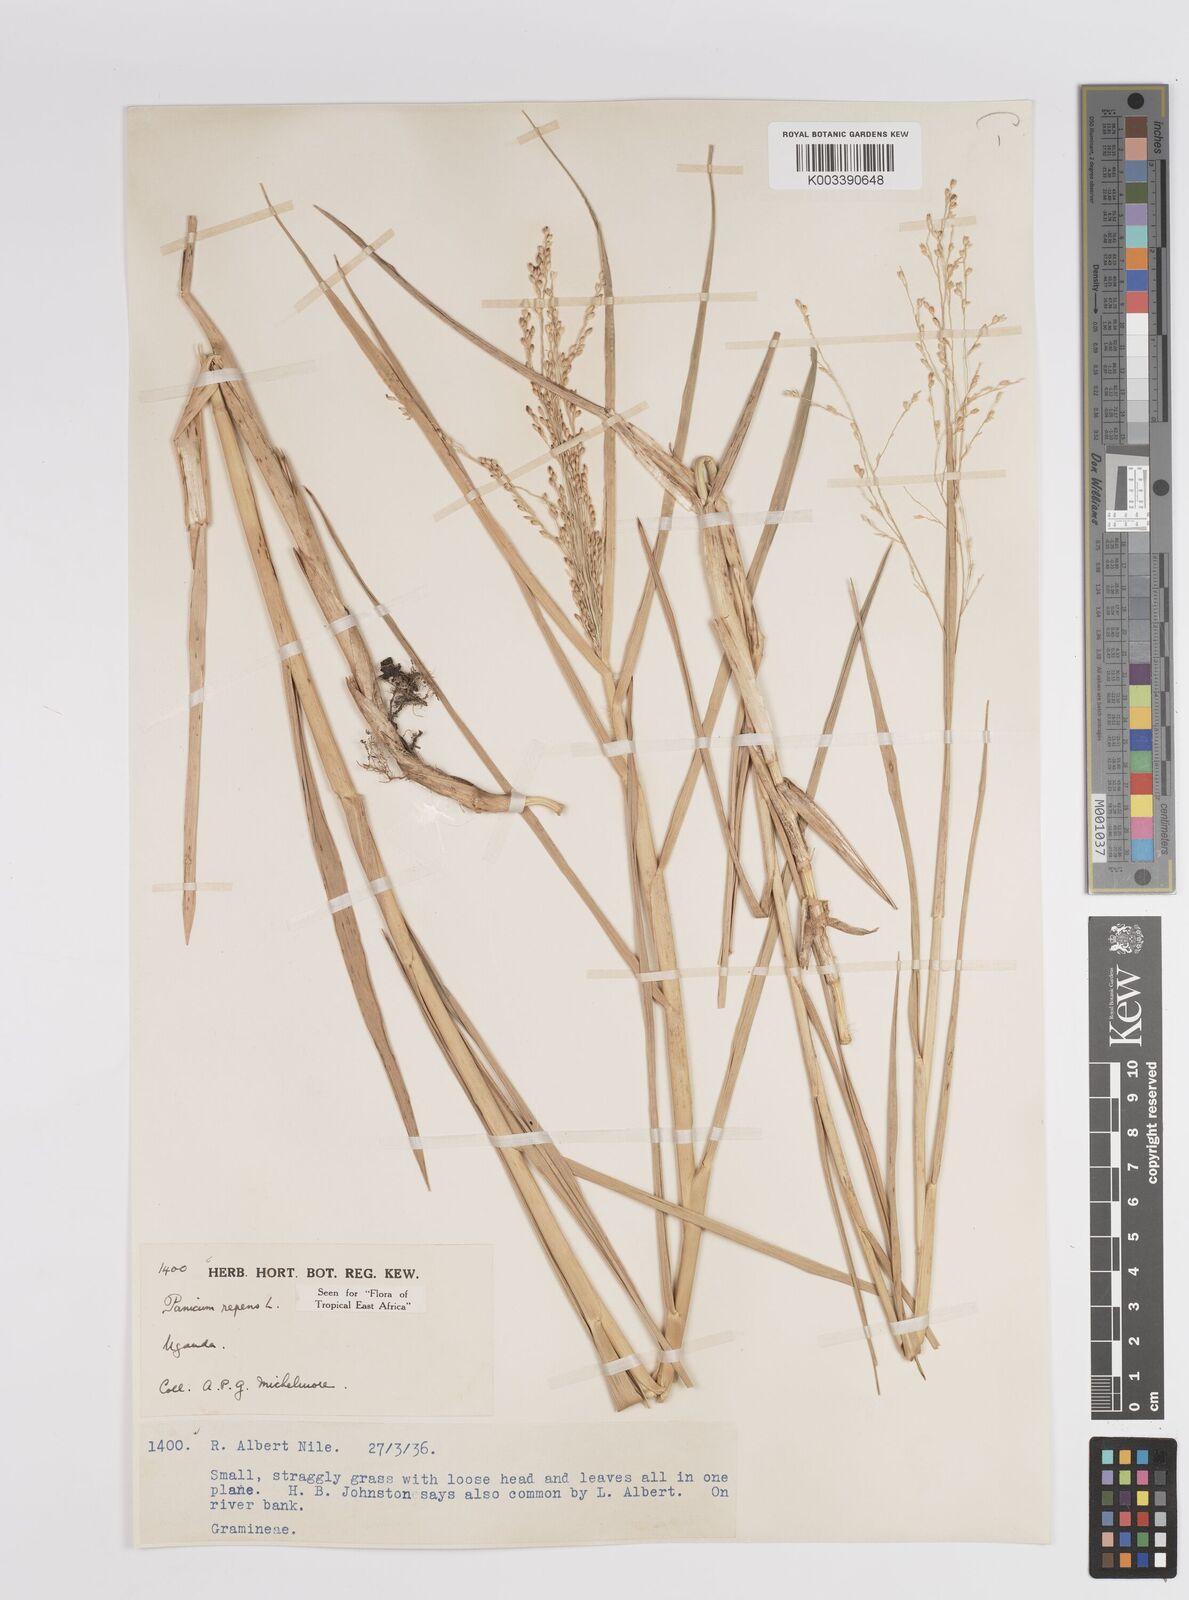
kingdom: Plantae
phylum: Tracheophyta
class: Liliopsida
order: Poales
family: Poaceae
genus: Panicum
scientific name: Panicum repens
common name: Torpedo grass
